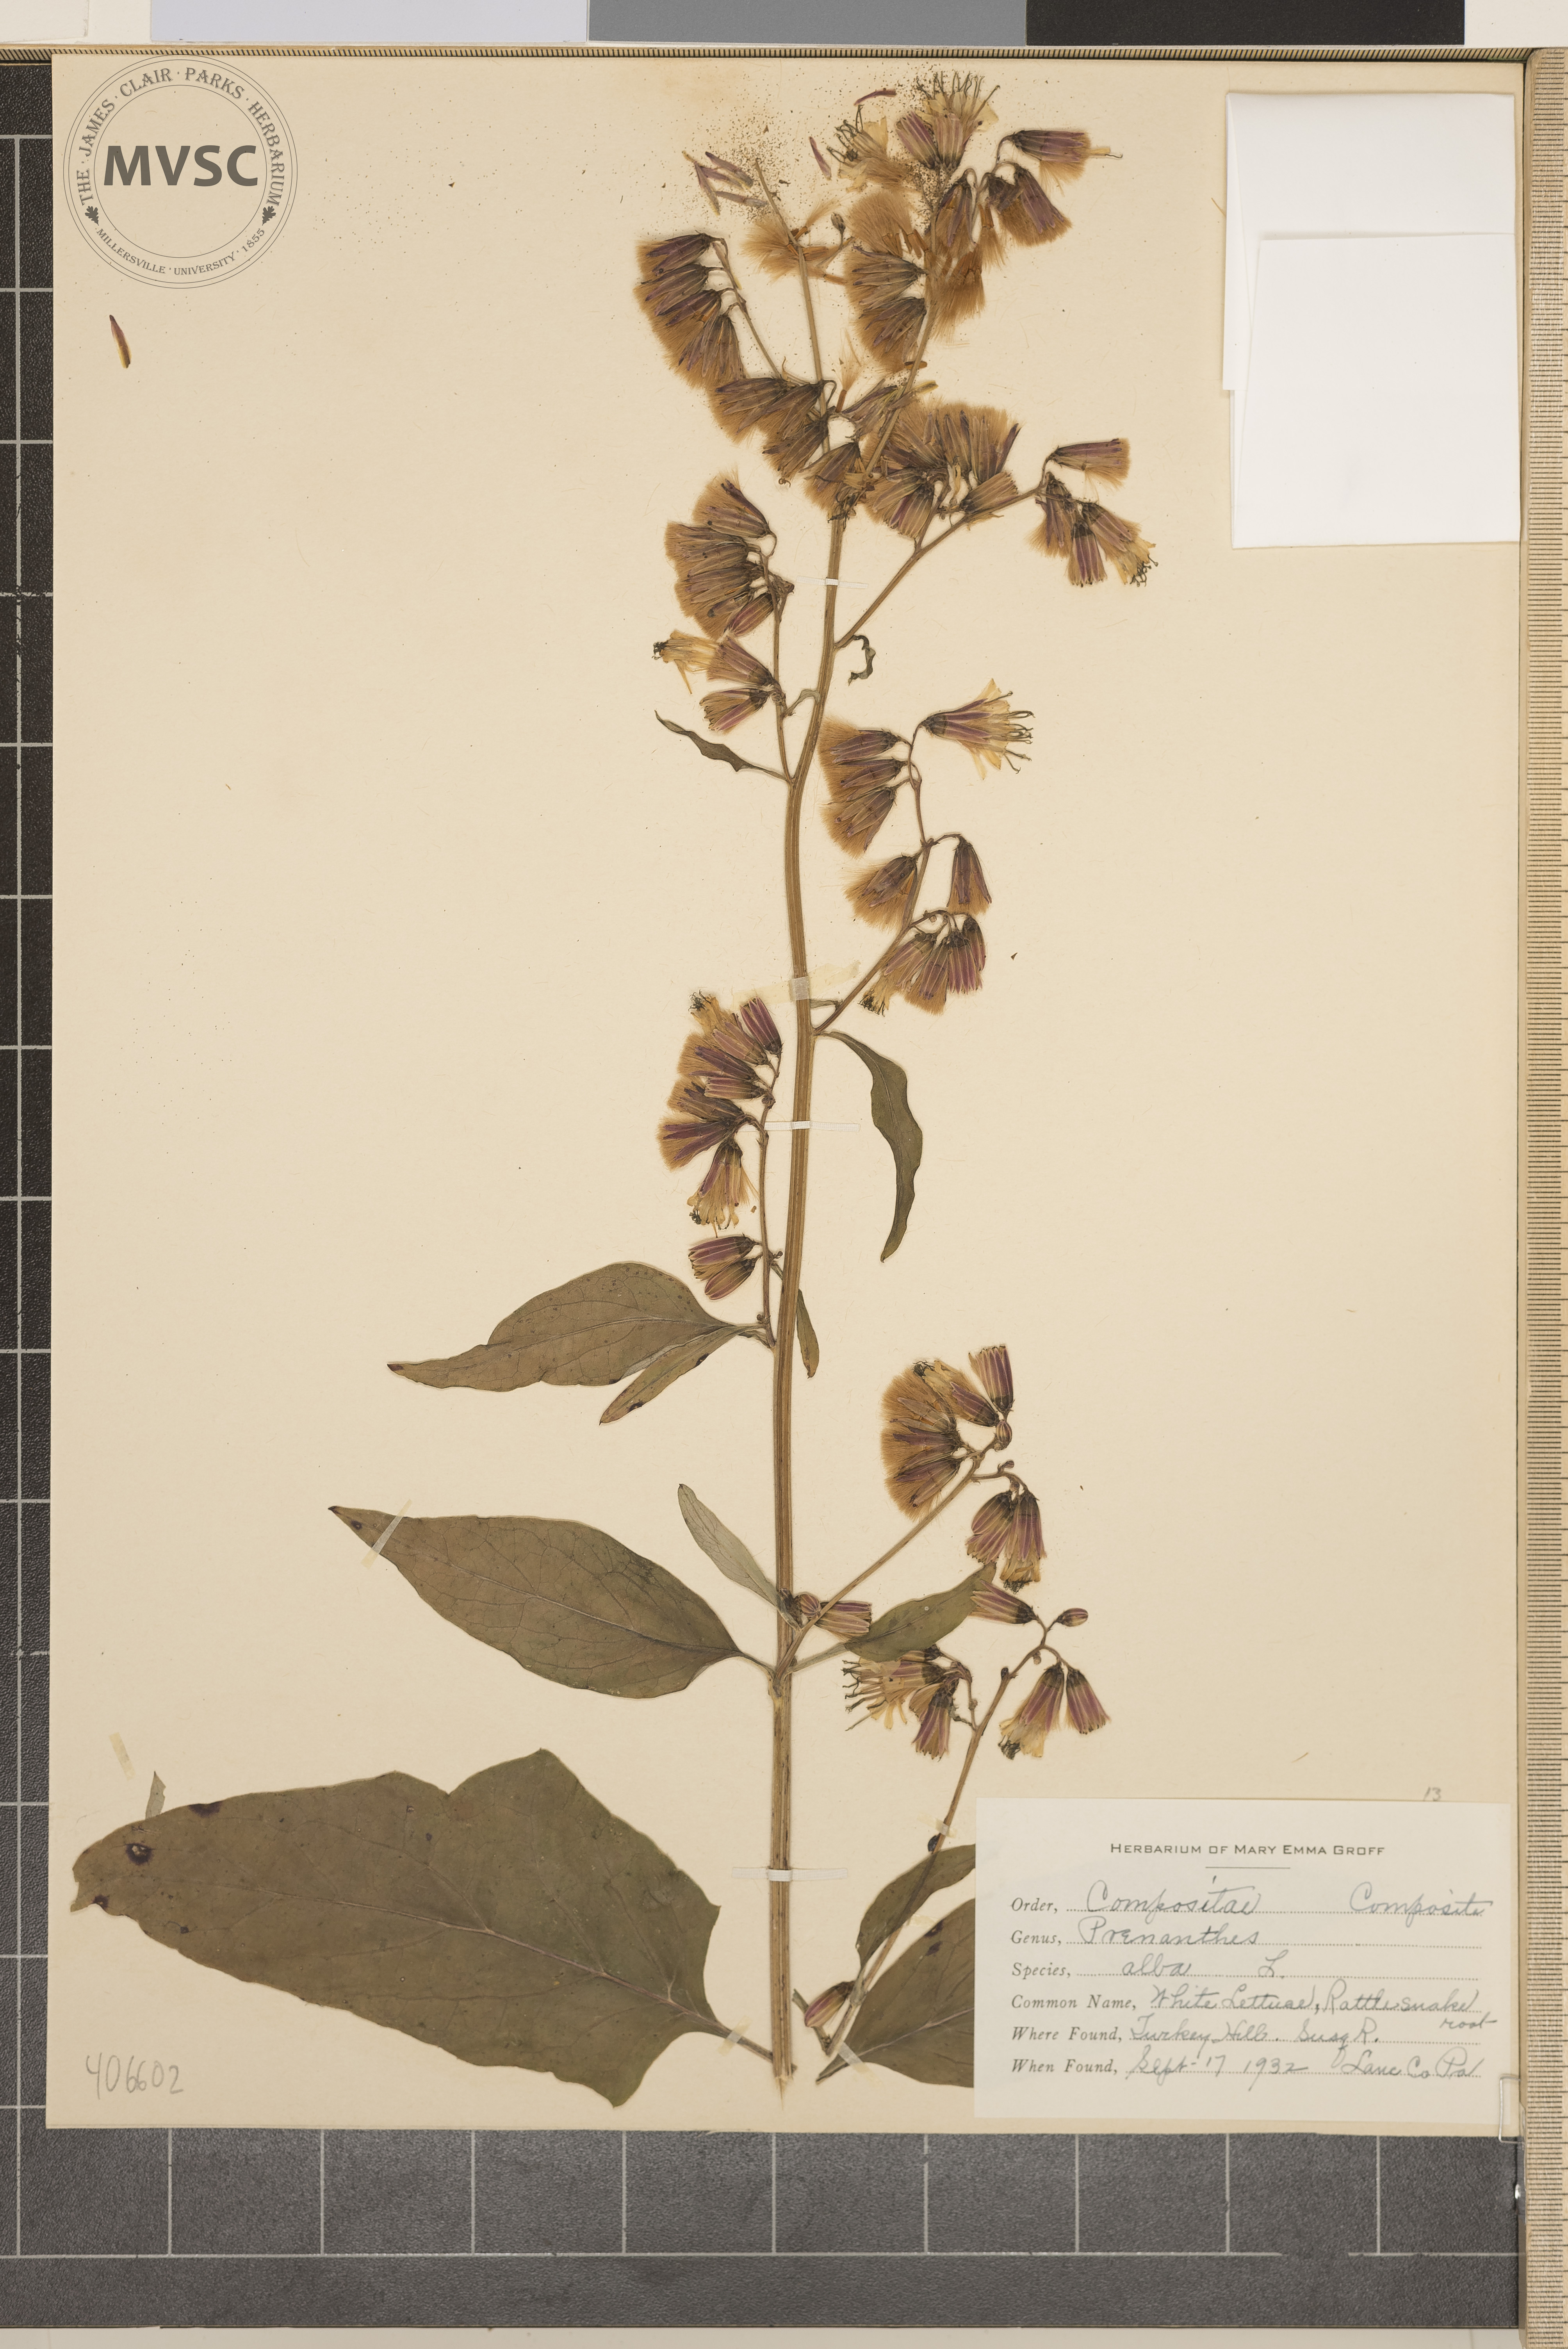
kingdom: Plantae
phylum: Tracheophyta
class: Magnoliopsida
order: Asterales
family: Asteraceae
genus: Nabalus
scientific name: Nabalus
